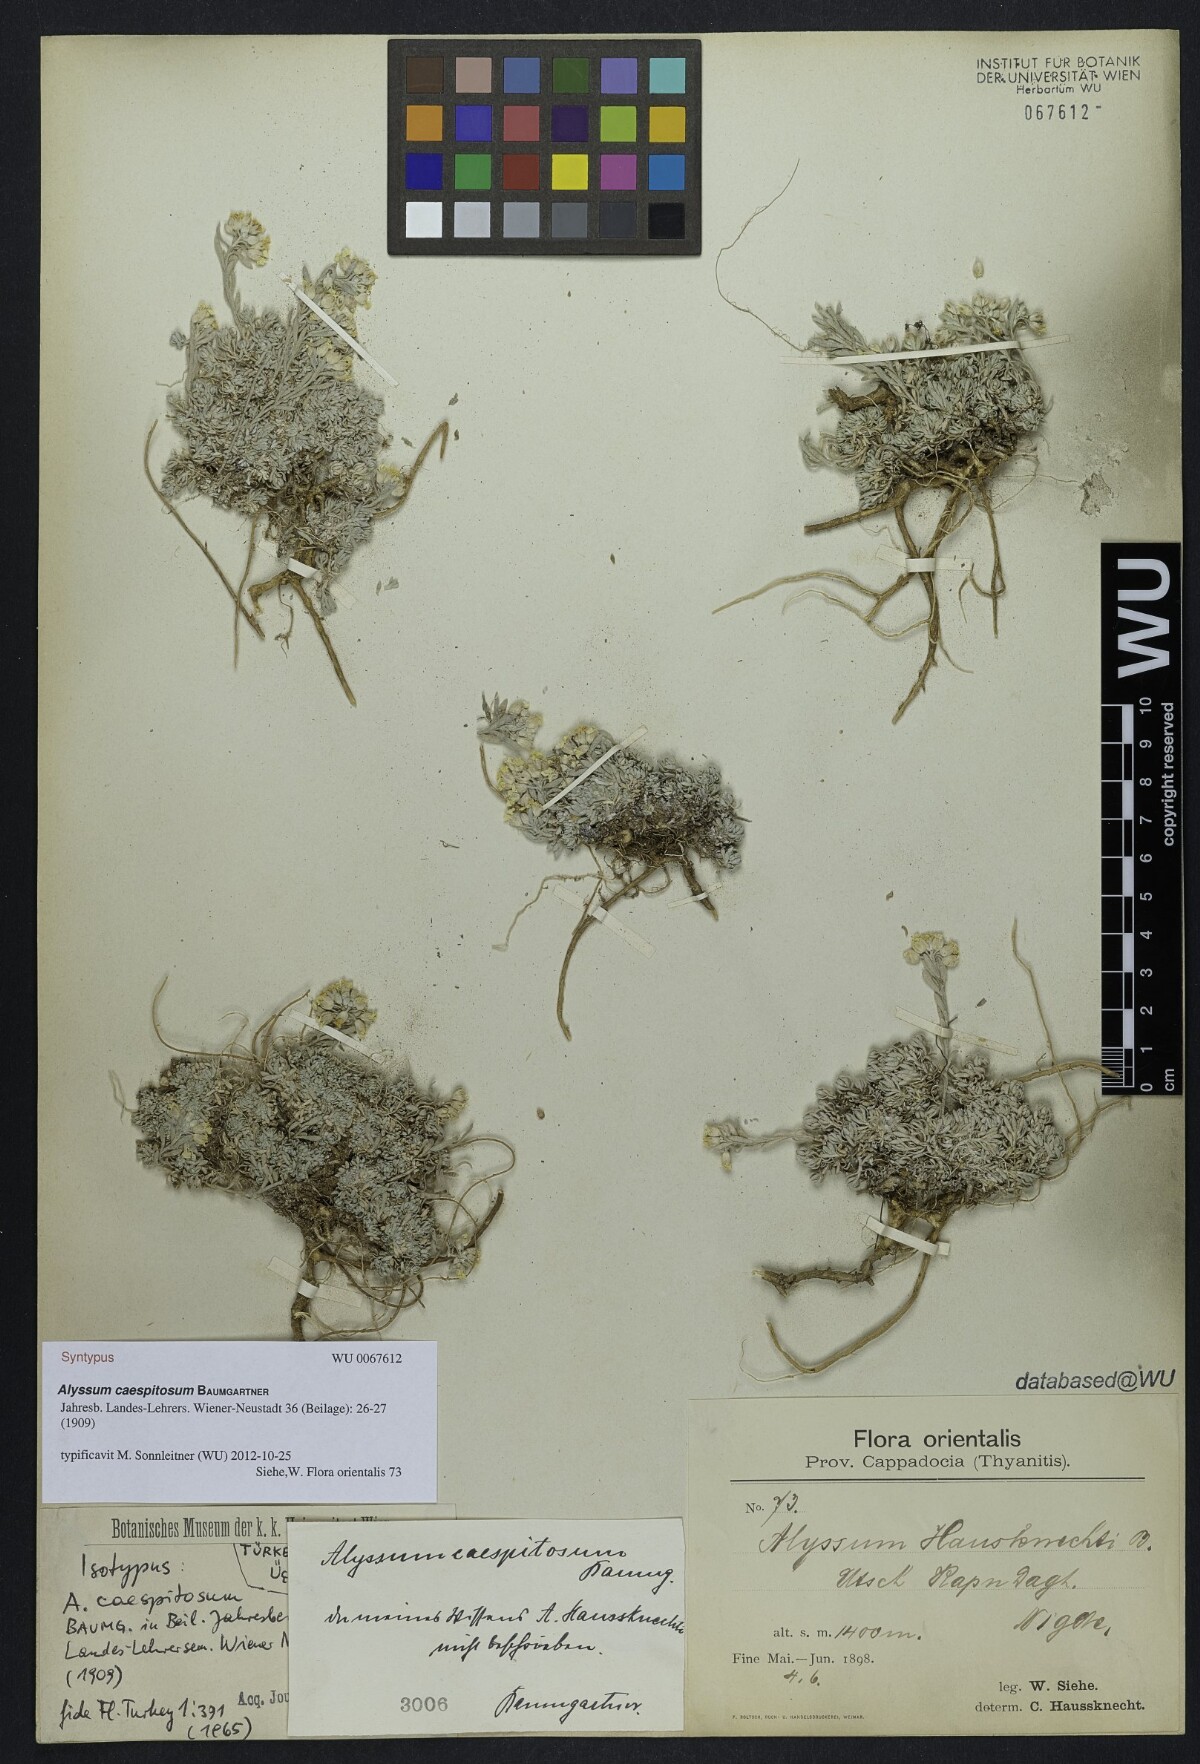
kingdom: Plantae
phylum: Tracheophyta
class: Magnoliopsida
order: Brassicales
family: Brassicaceae
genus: Alyssum
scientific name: Alyssum caespitosum
